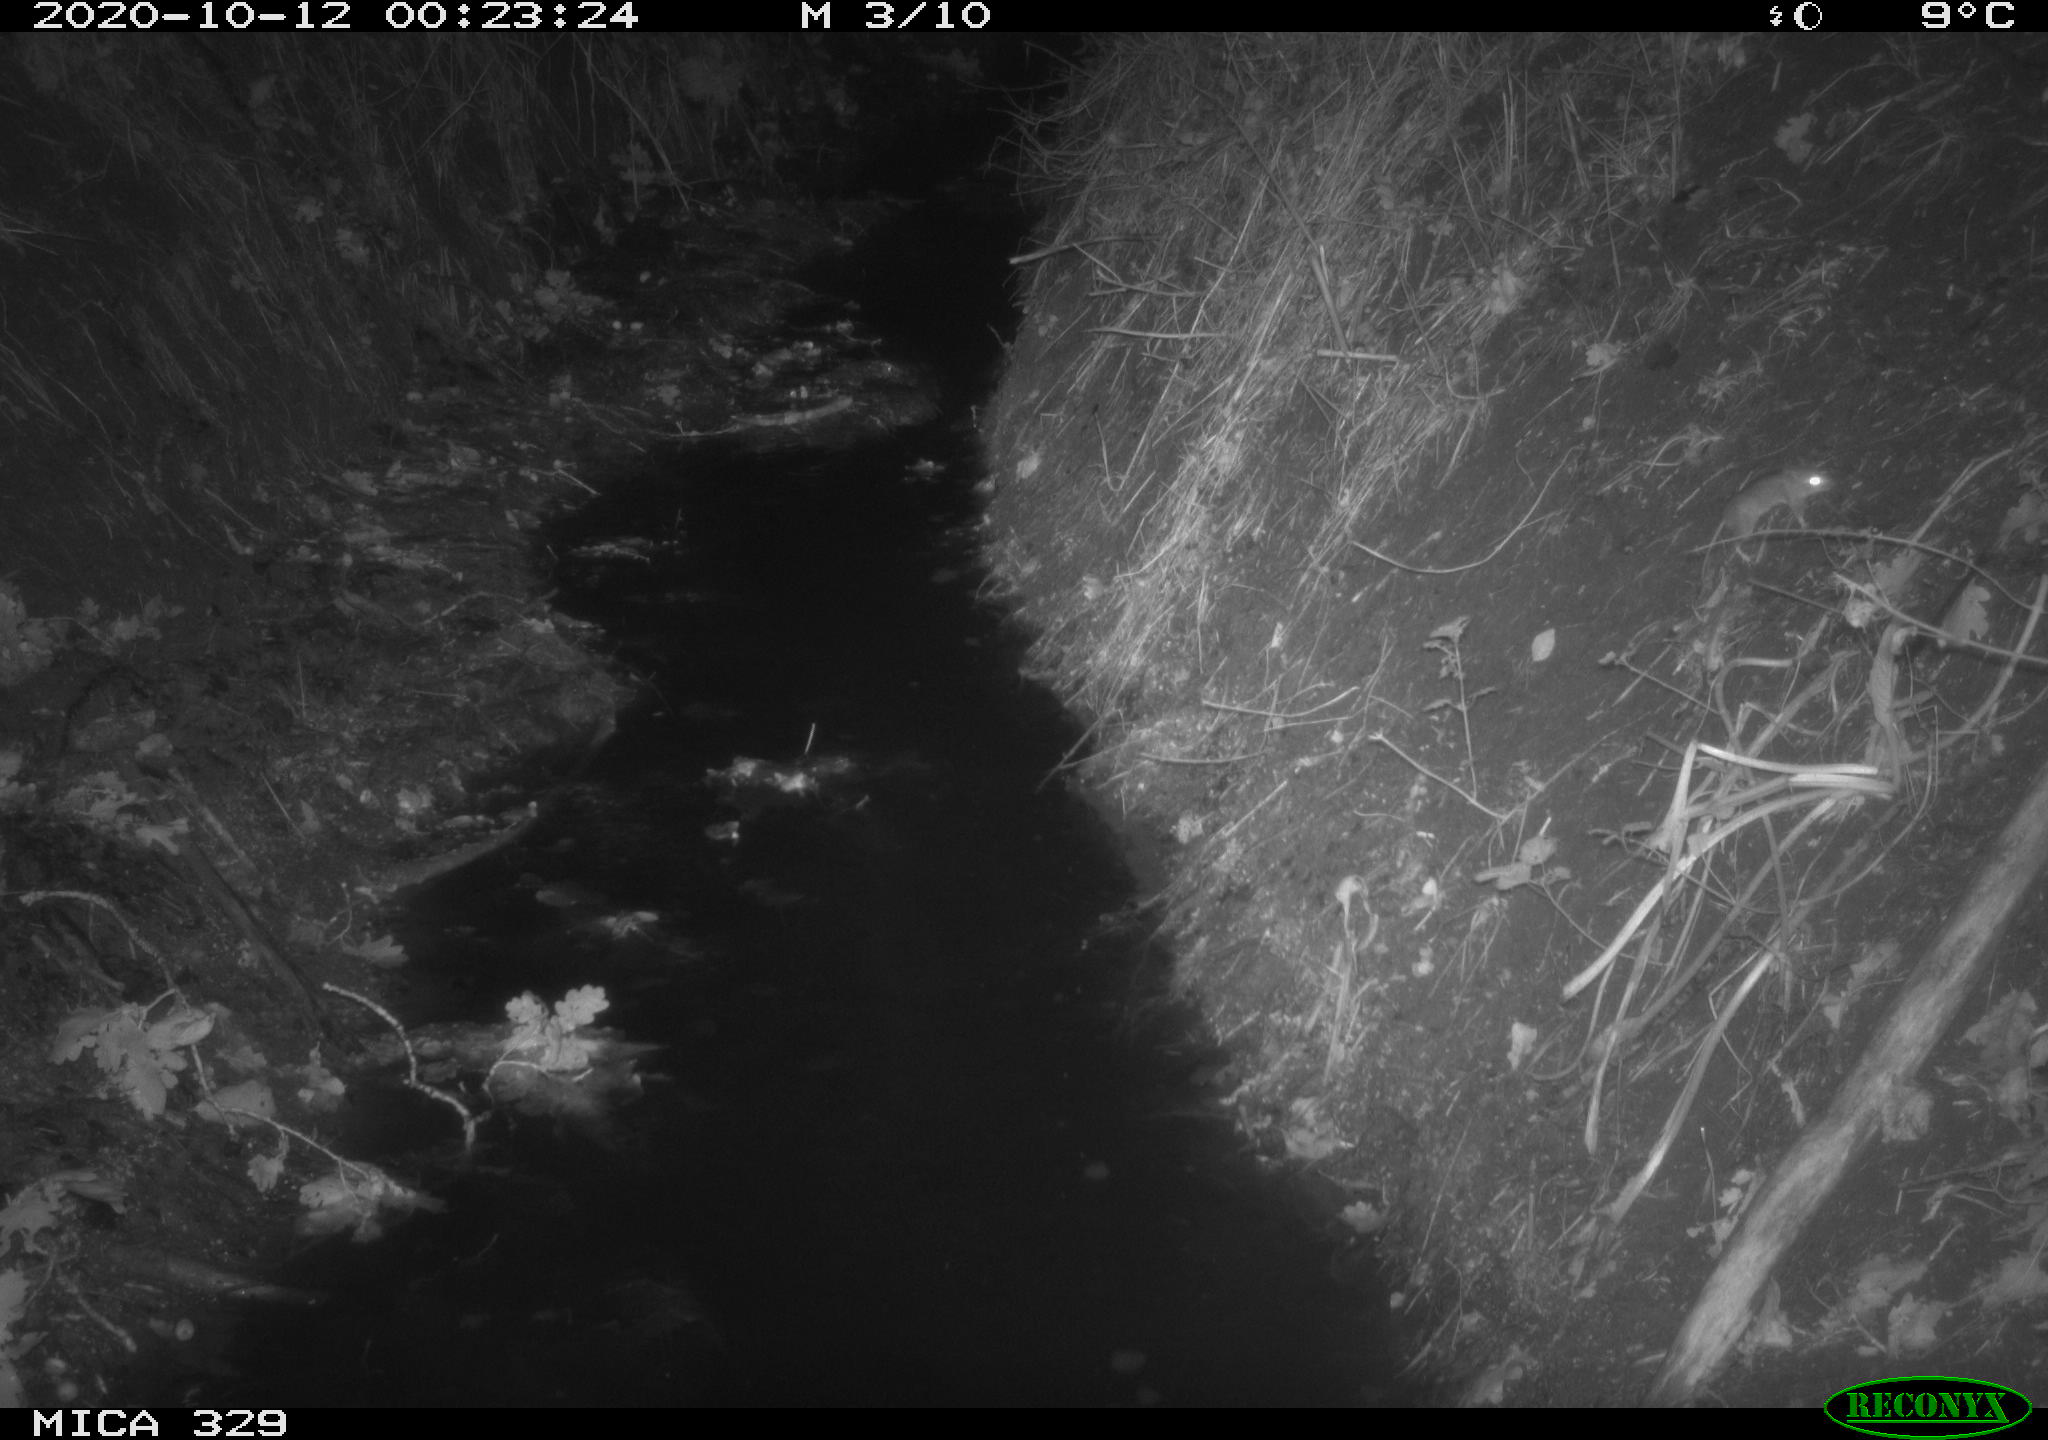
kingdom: Animalia
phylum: Chordata
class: Mammalia
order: Rodentia
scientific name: Rodentia
